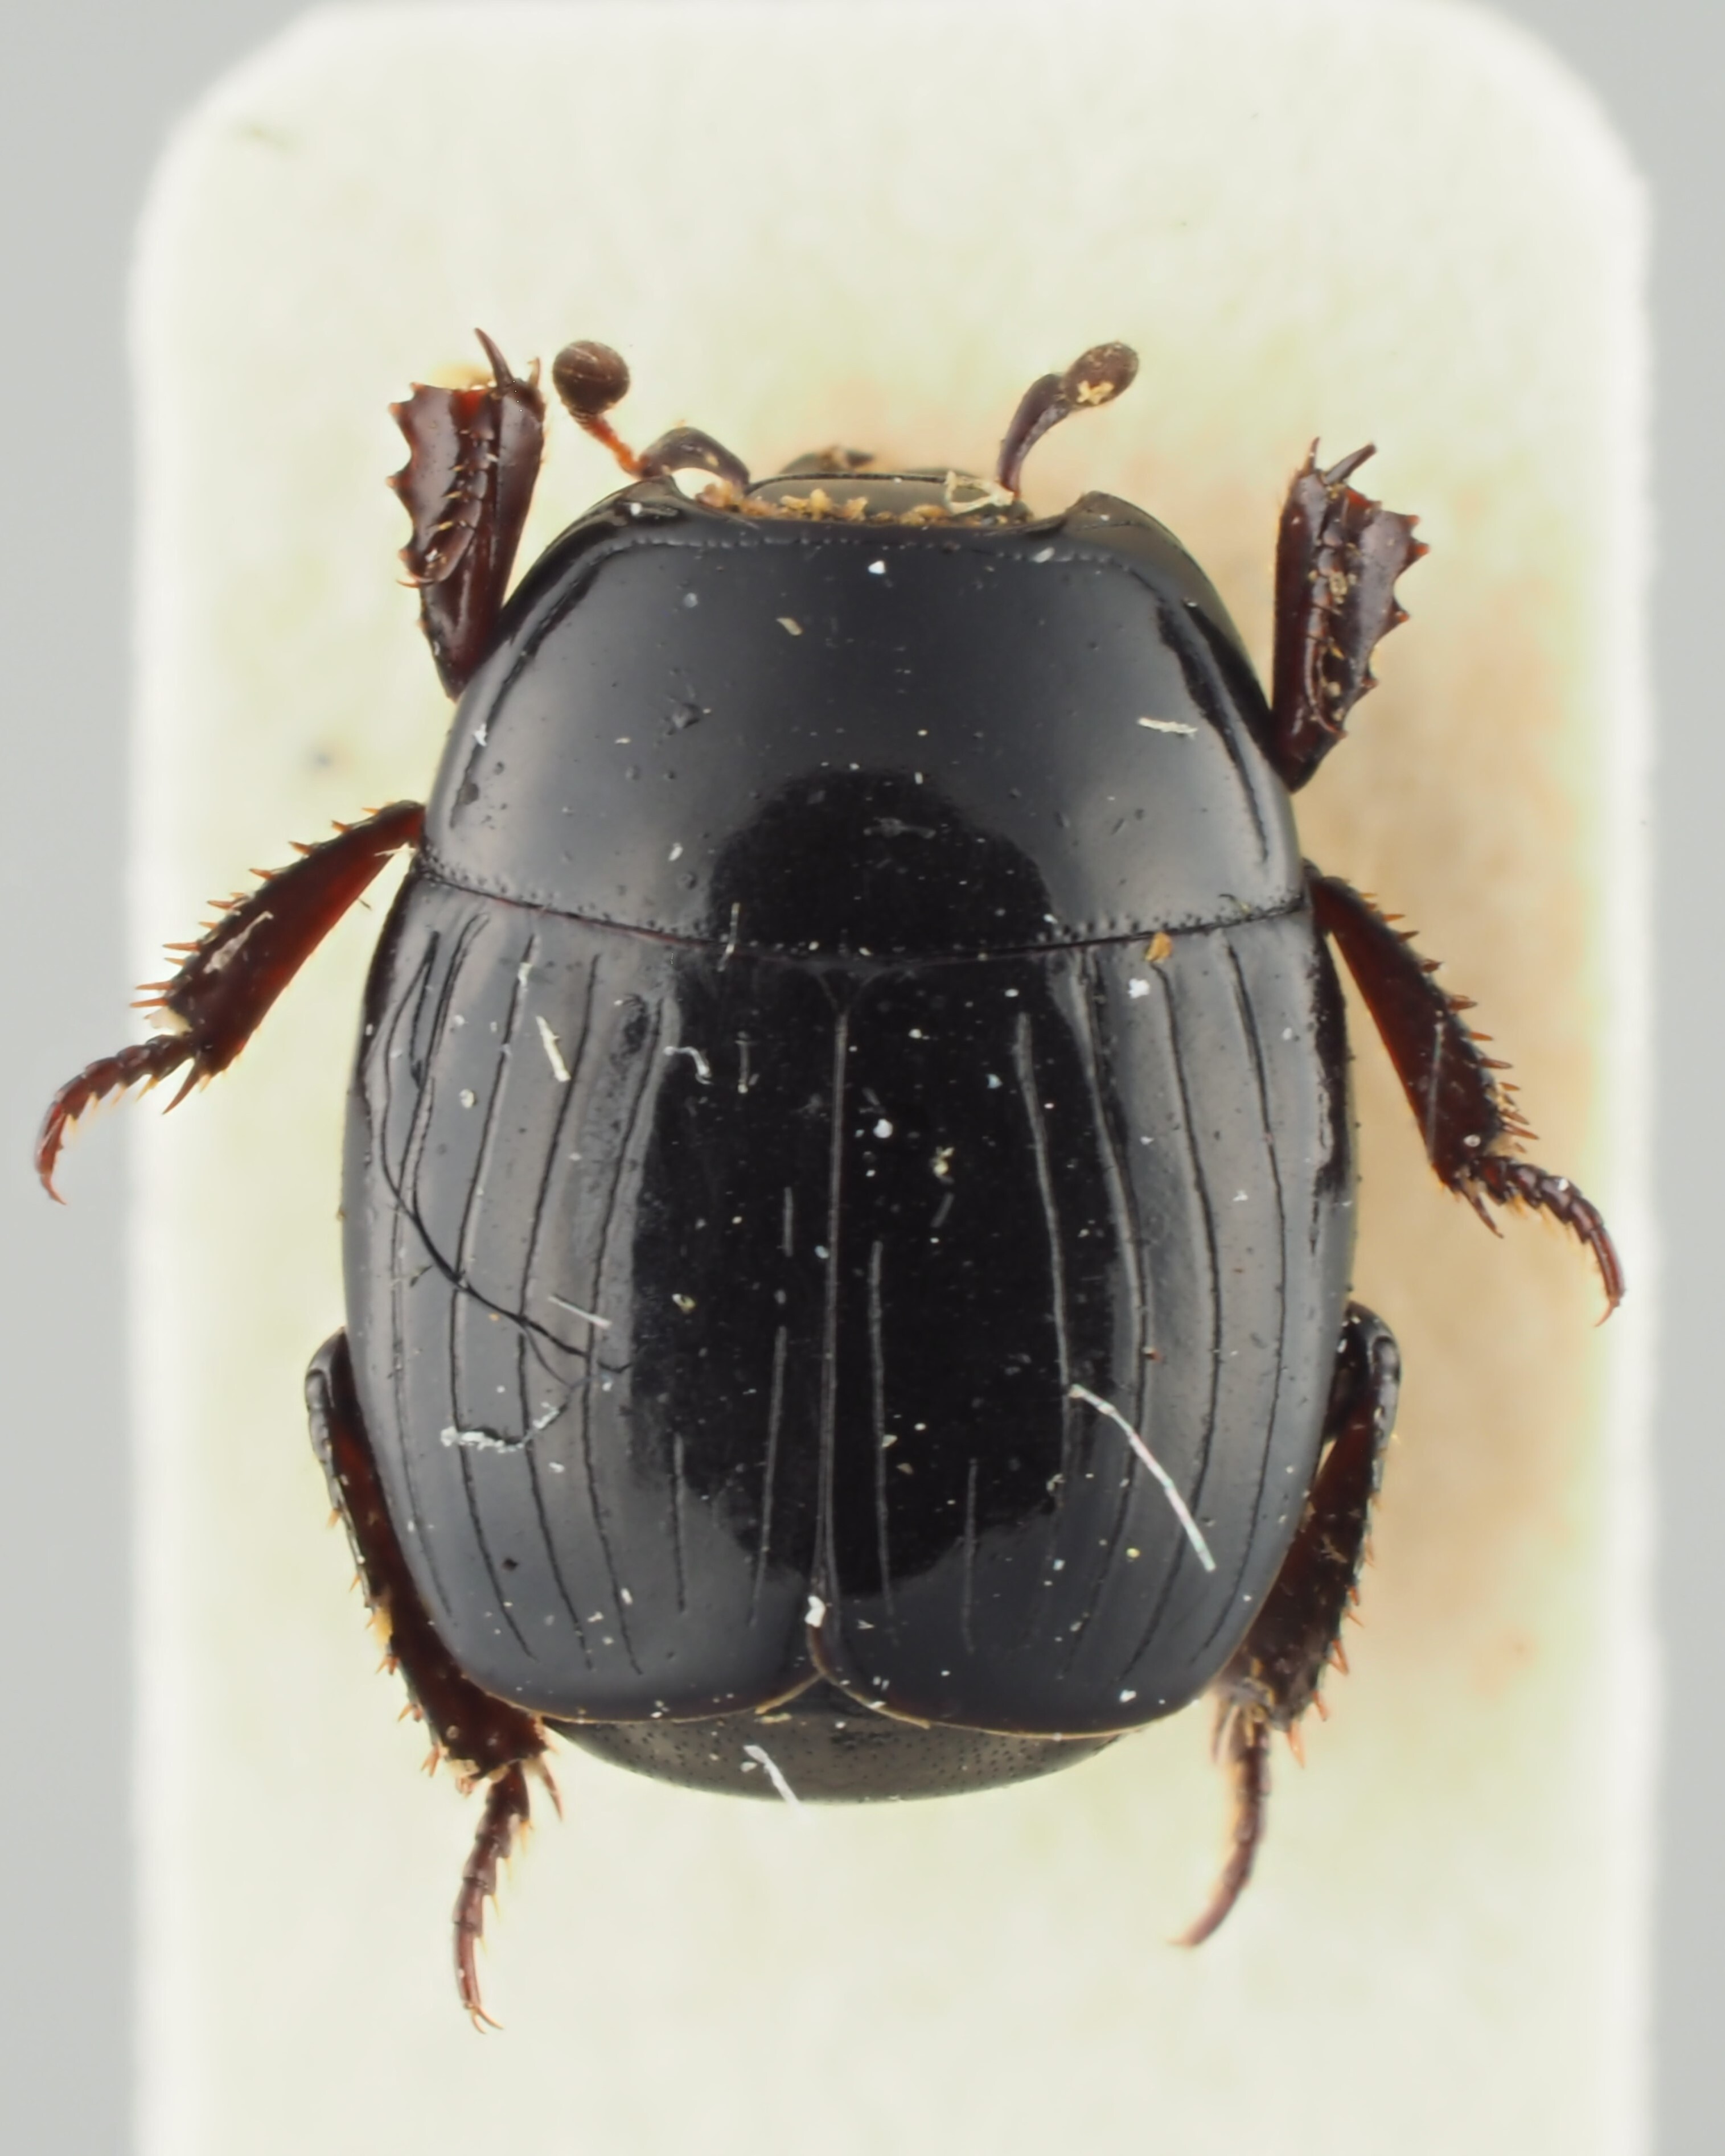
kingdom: Animalia
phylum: Arthropoda
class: Insecta
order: Coleoptera
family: Histeridae
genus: Hister
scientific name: Hister bissexstriatus
